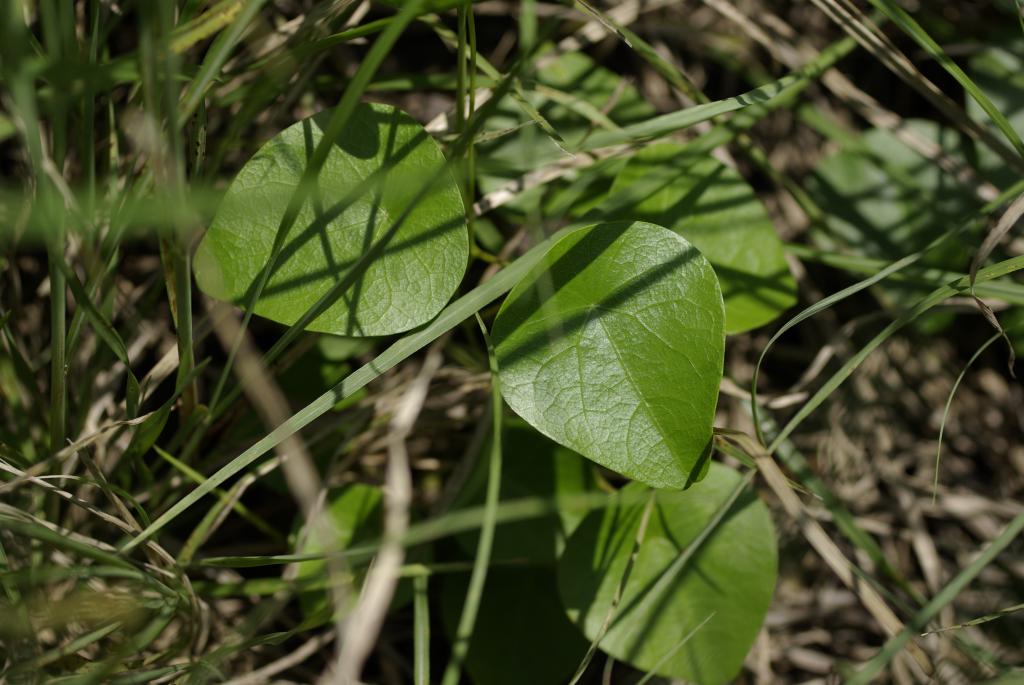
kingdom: Plantae
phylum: Tracheophyta
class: Magnoliopsida
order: Ranunculales
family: Menispermaceae
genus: Stephania
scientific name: Stephania japonica
